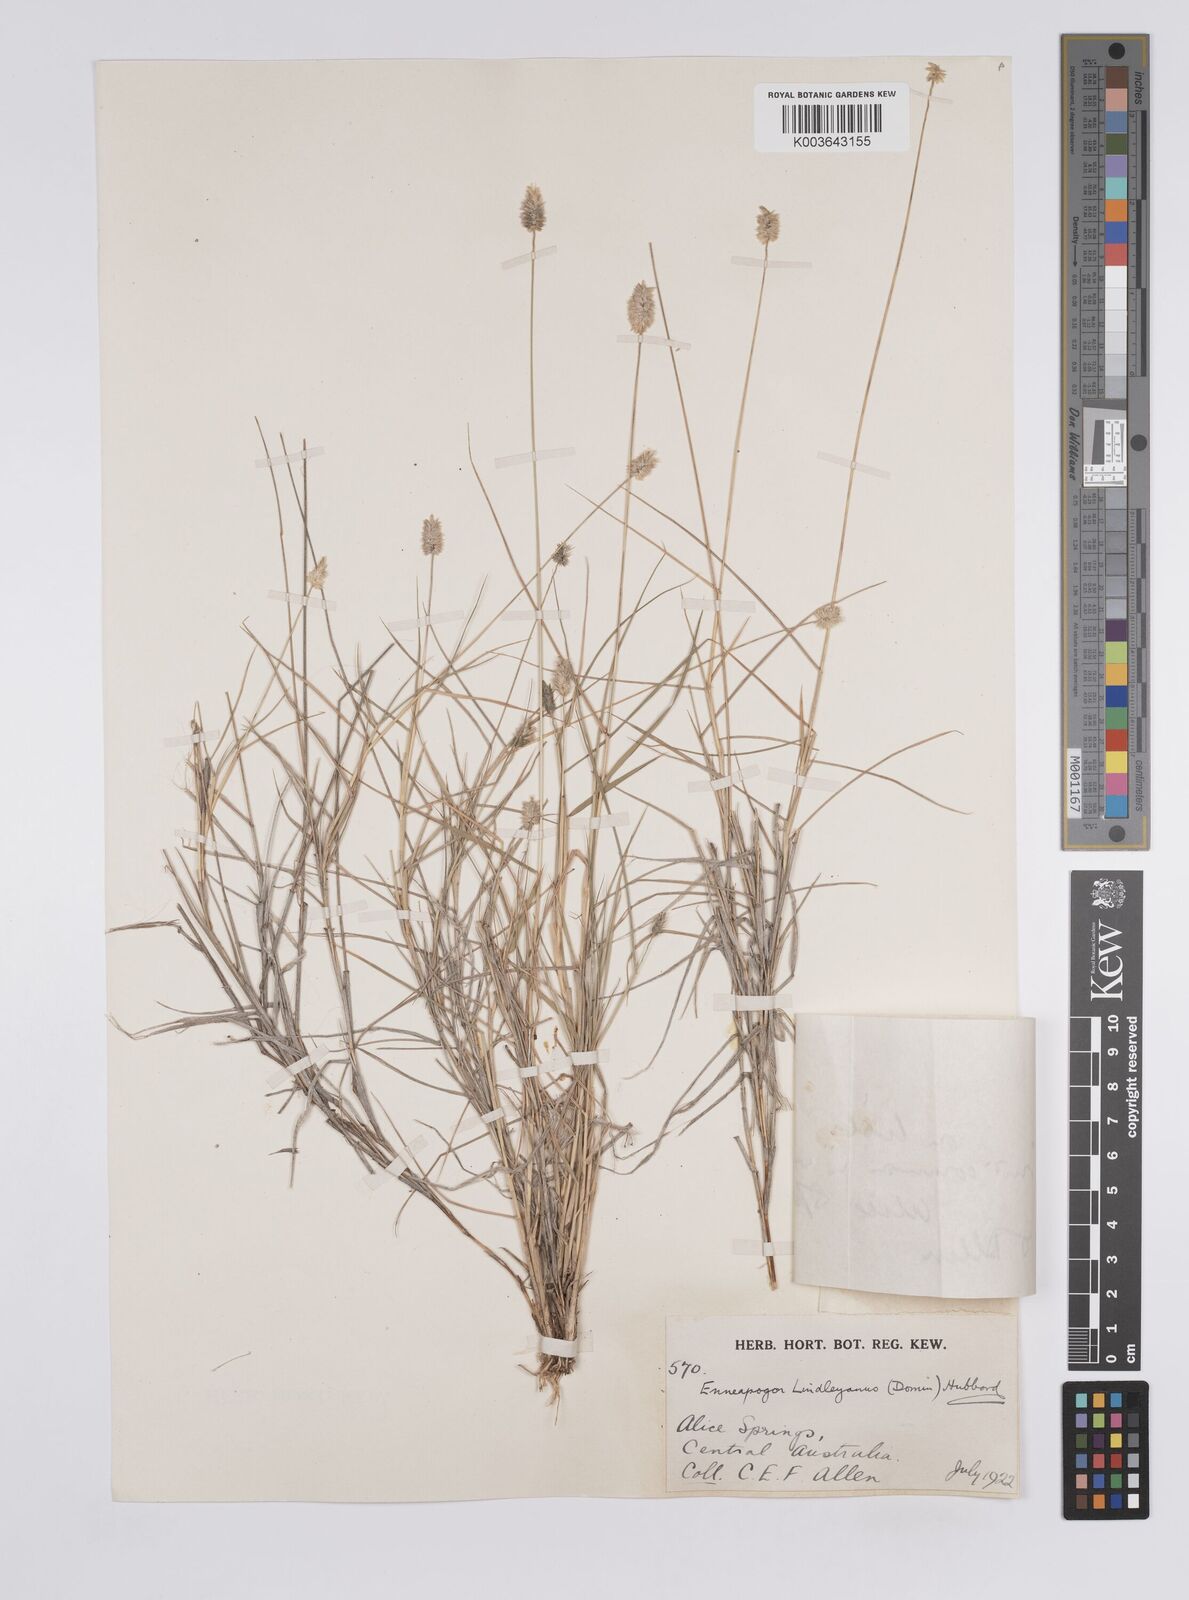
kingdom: Plantae
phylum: Tracheophyta
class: Liliopsida
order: Poales
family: Poaceae
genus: Enneapogon
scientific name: Enneapogon lindleyanus
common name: Conetop nineawn
